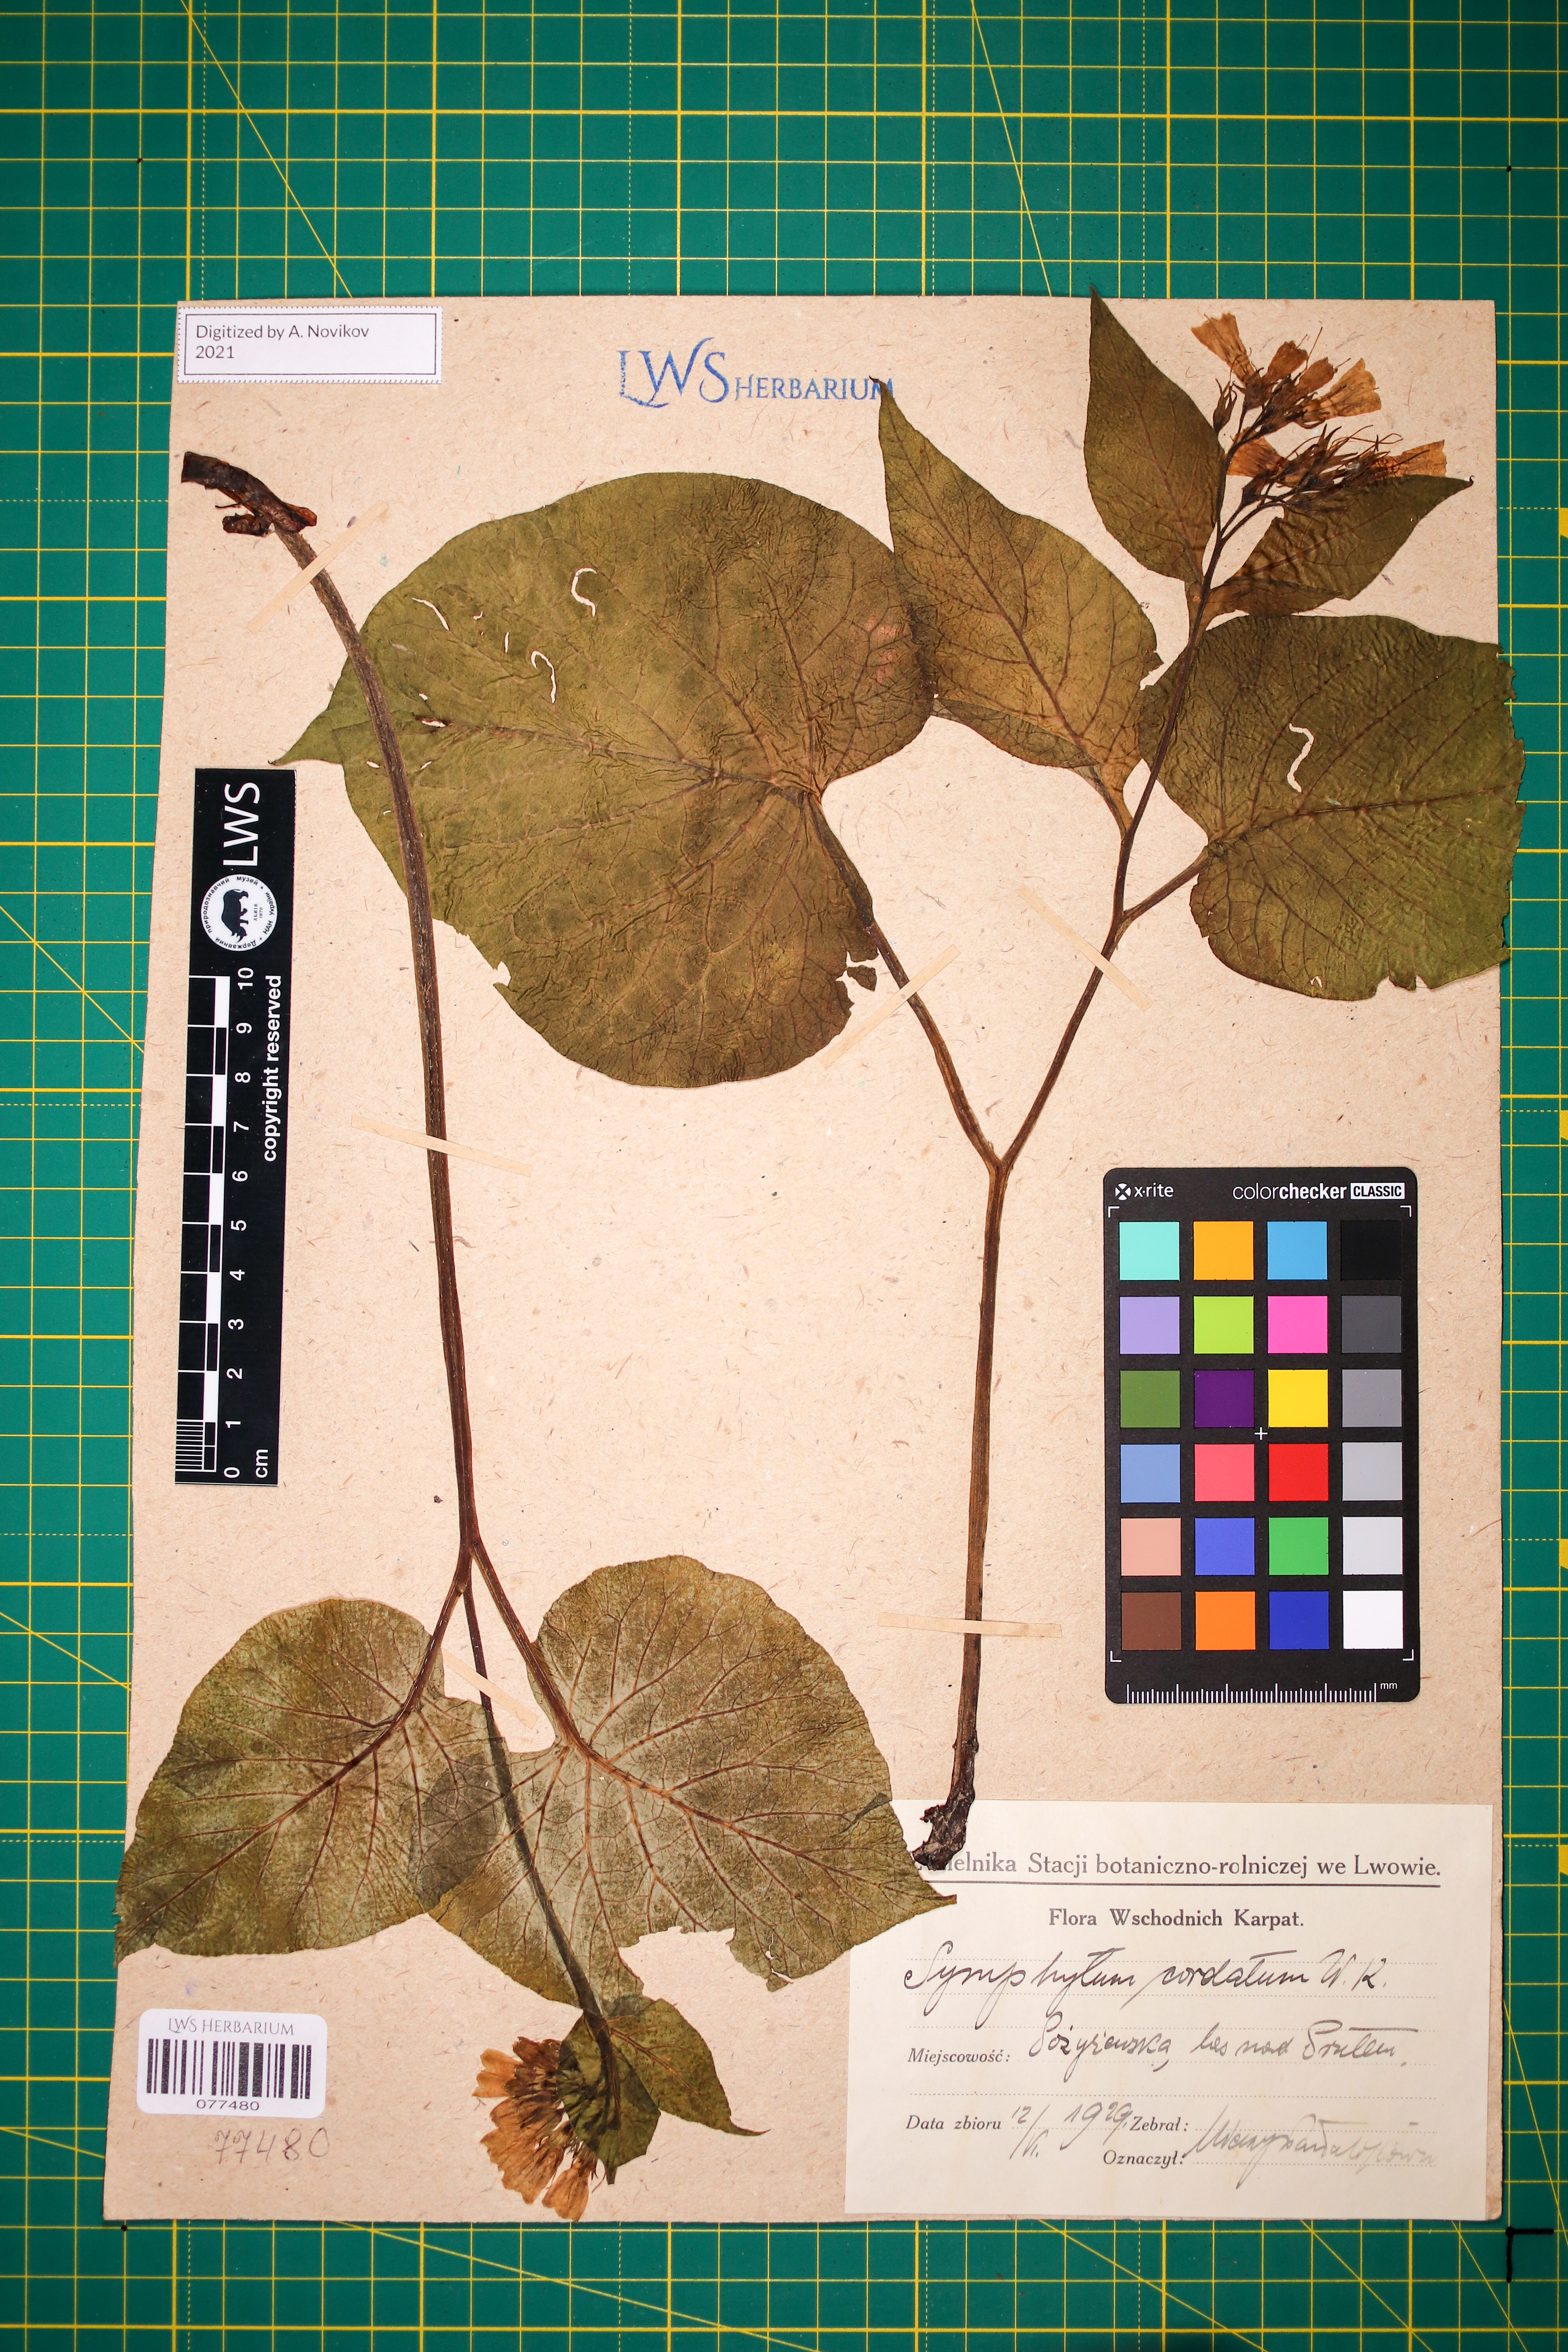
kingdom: Plantae
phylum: Tracheophyta
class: Magnoliopsida
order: Boraginales
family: Boraginaceae
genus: Symphytum
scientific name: Symphytum cordatum
